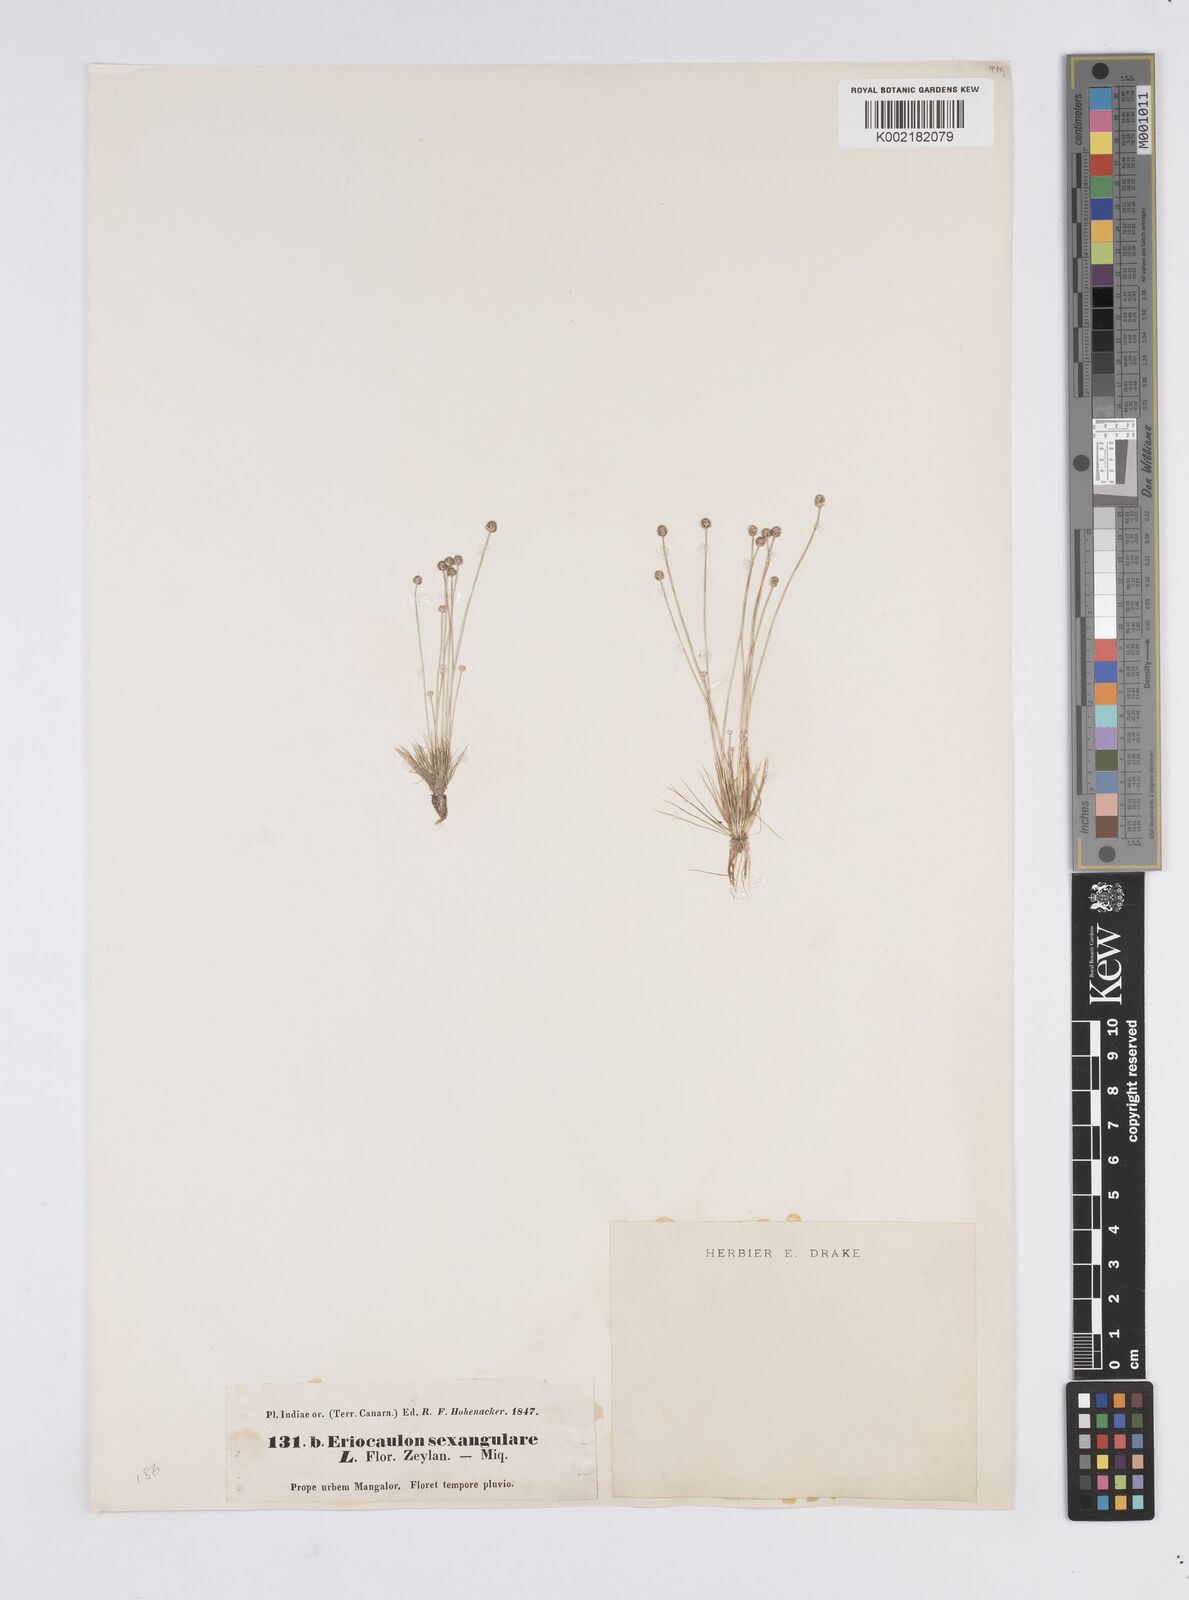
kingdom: Plantae
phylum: Tracheophyta
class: Liliopsida
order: Poales
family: Eriocaulaceae
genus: Eriocaulon
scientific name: Eriocaulon cinereum
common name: Ashy pipewort
